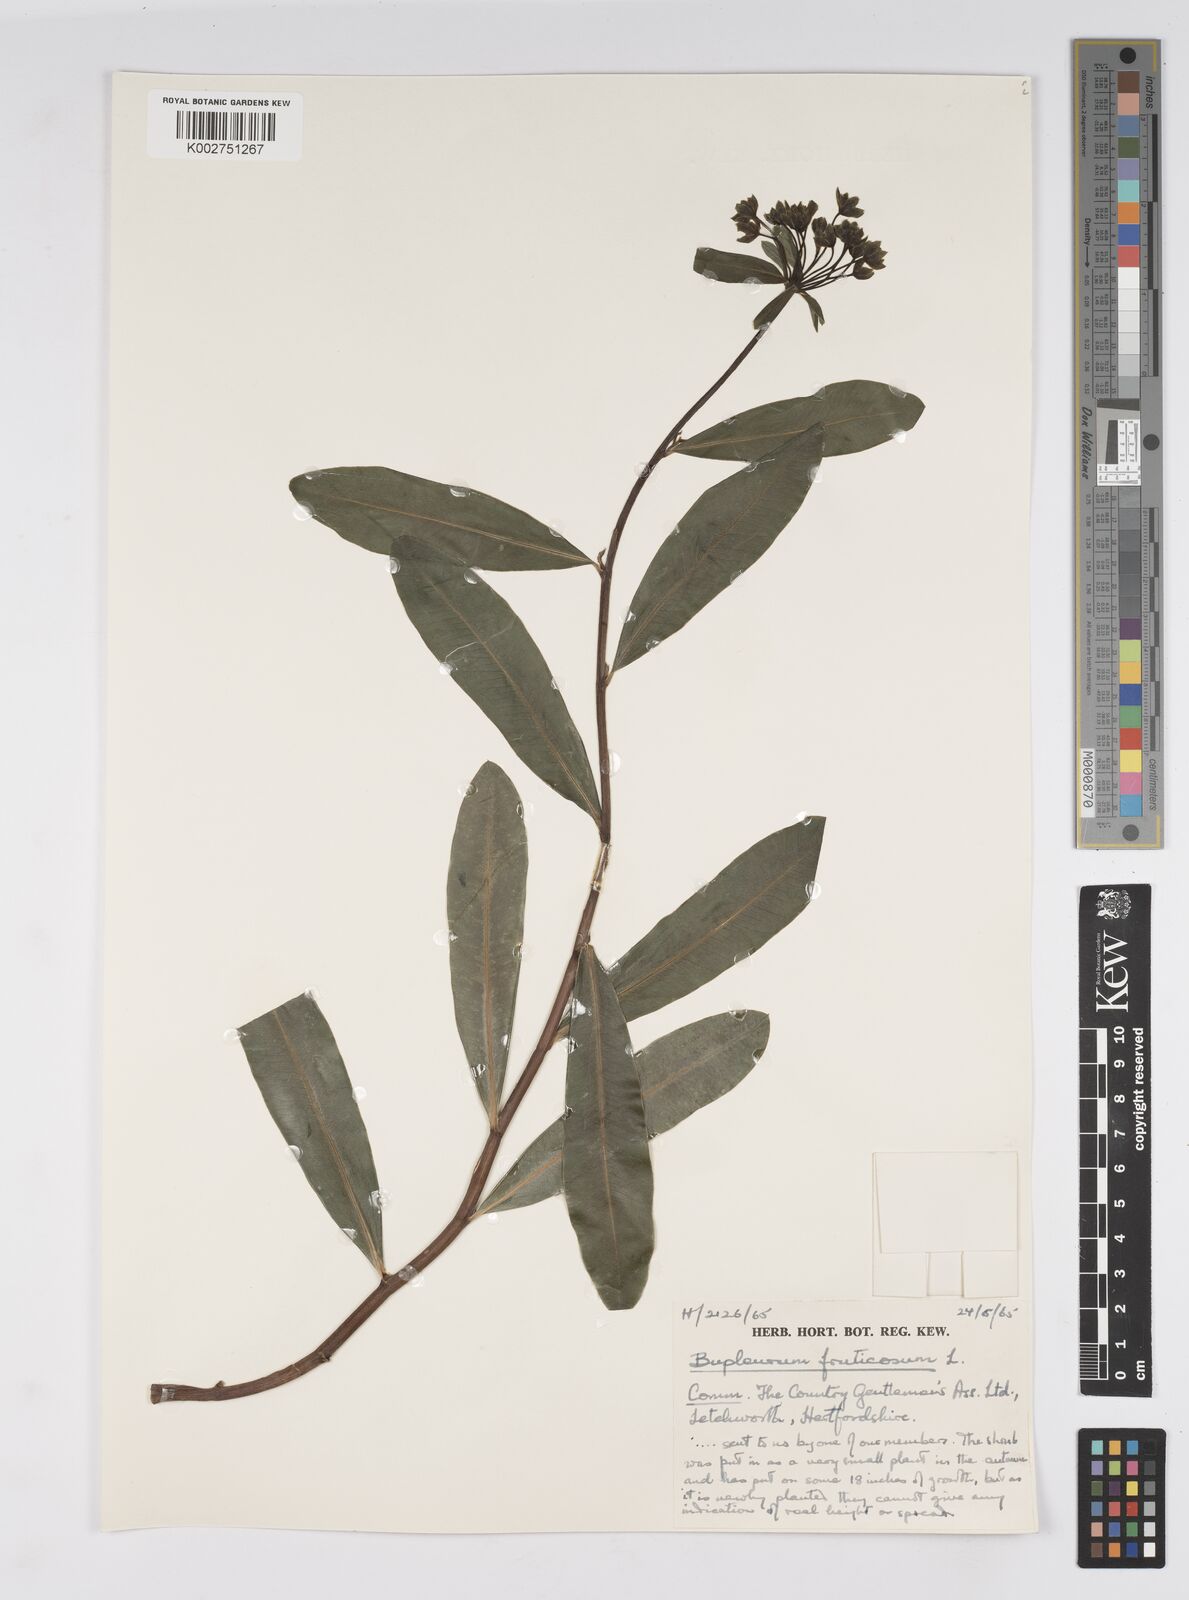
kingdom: Plantae
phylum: Tracheophyta
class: Magnoliopsida
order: Apiales
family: Apiaceae
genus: Bupleurum
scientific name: Bupleurum fruticosum
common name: Shrubby hare's-ear
